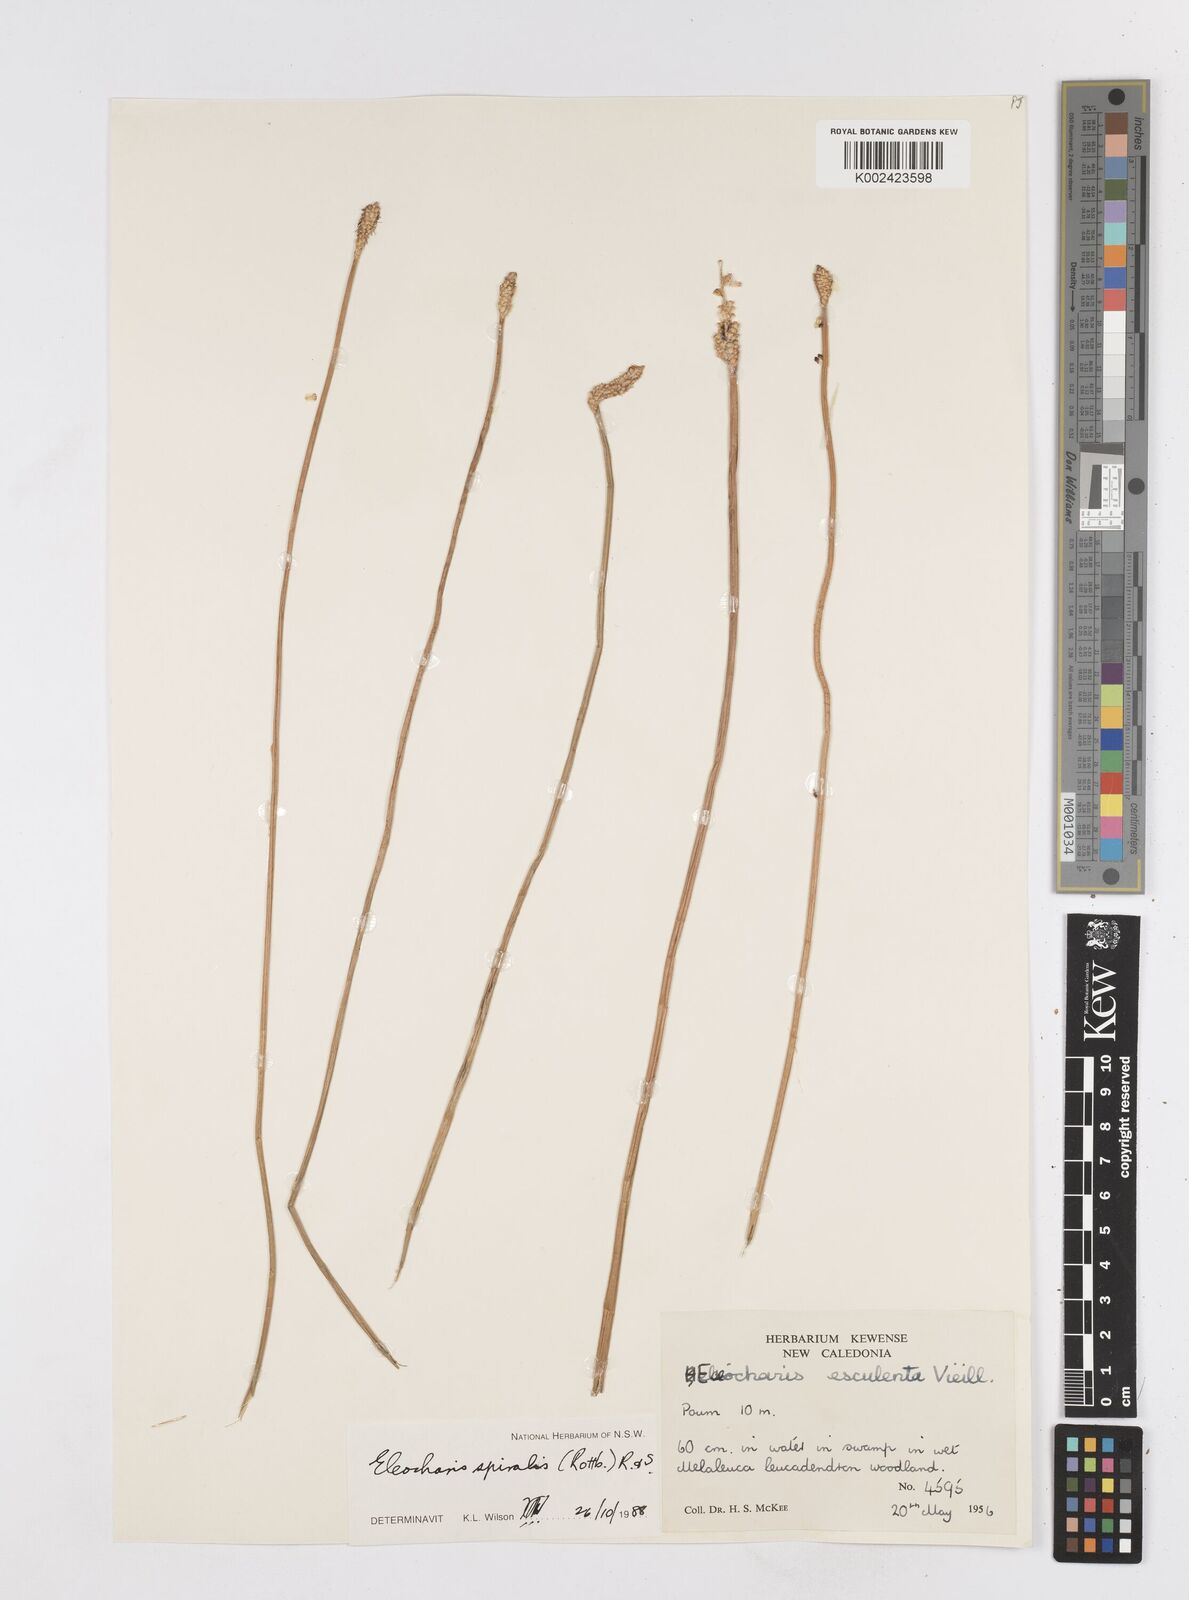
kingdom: Plantae
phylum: Tracheophyta
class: Liliopsida
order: Poales
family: Cyperaceae
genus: Eleocharis
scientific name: Eleocharis spiralis
